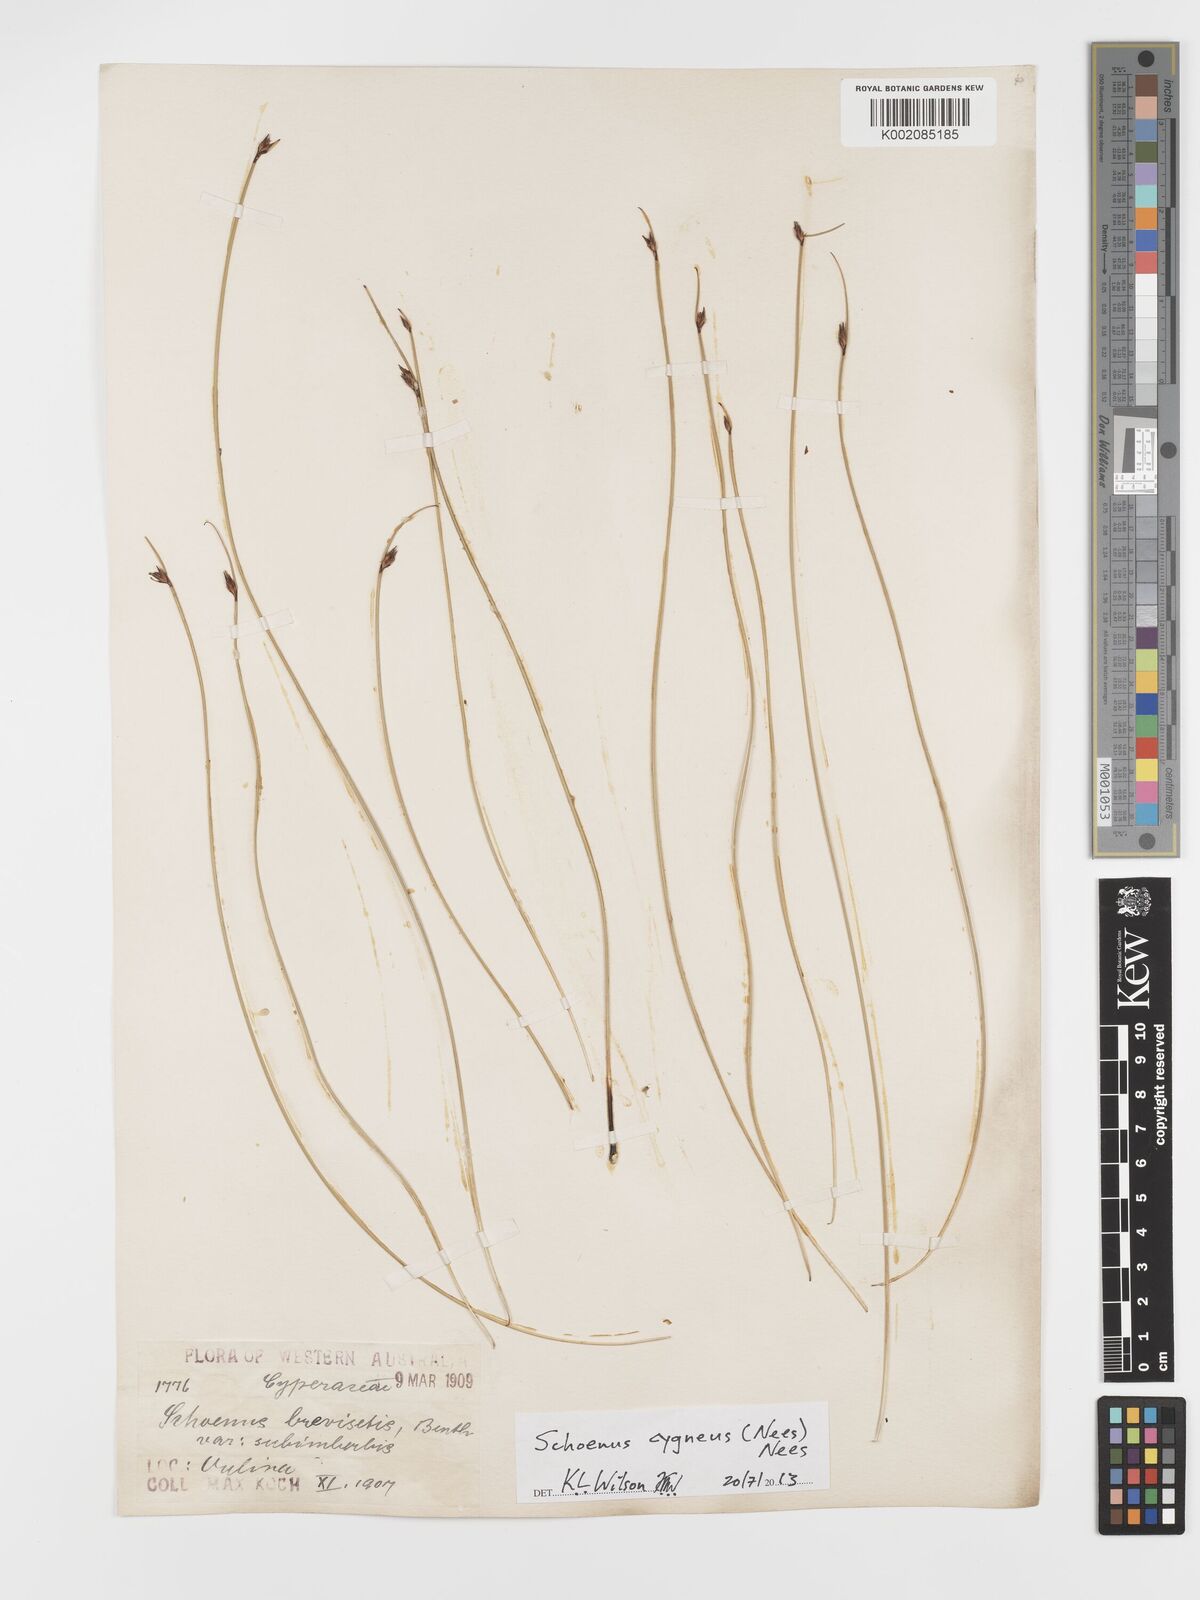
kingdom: Plantae
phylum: Tracheophyta
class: Liliopsida
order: Poales
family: Cyperaceae
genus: Schoenus
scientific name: Schoenus cygneus
